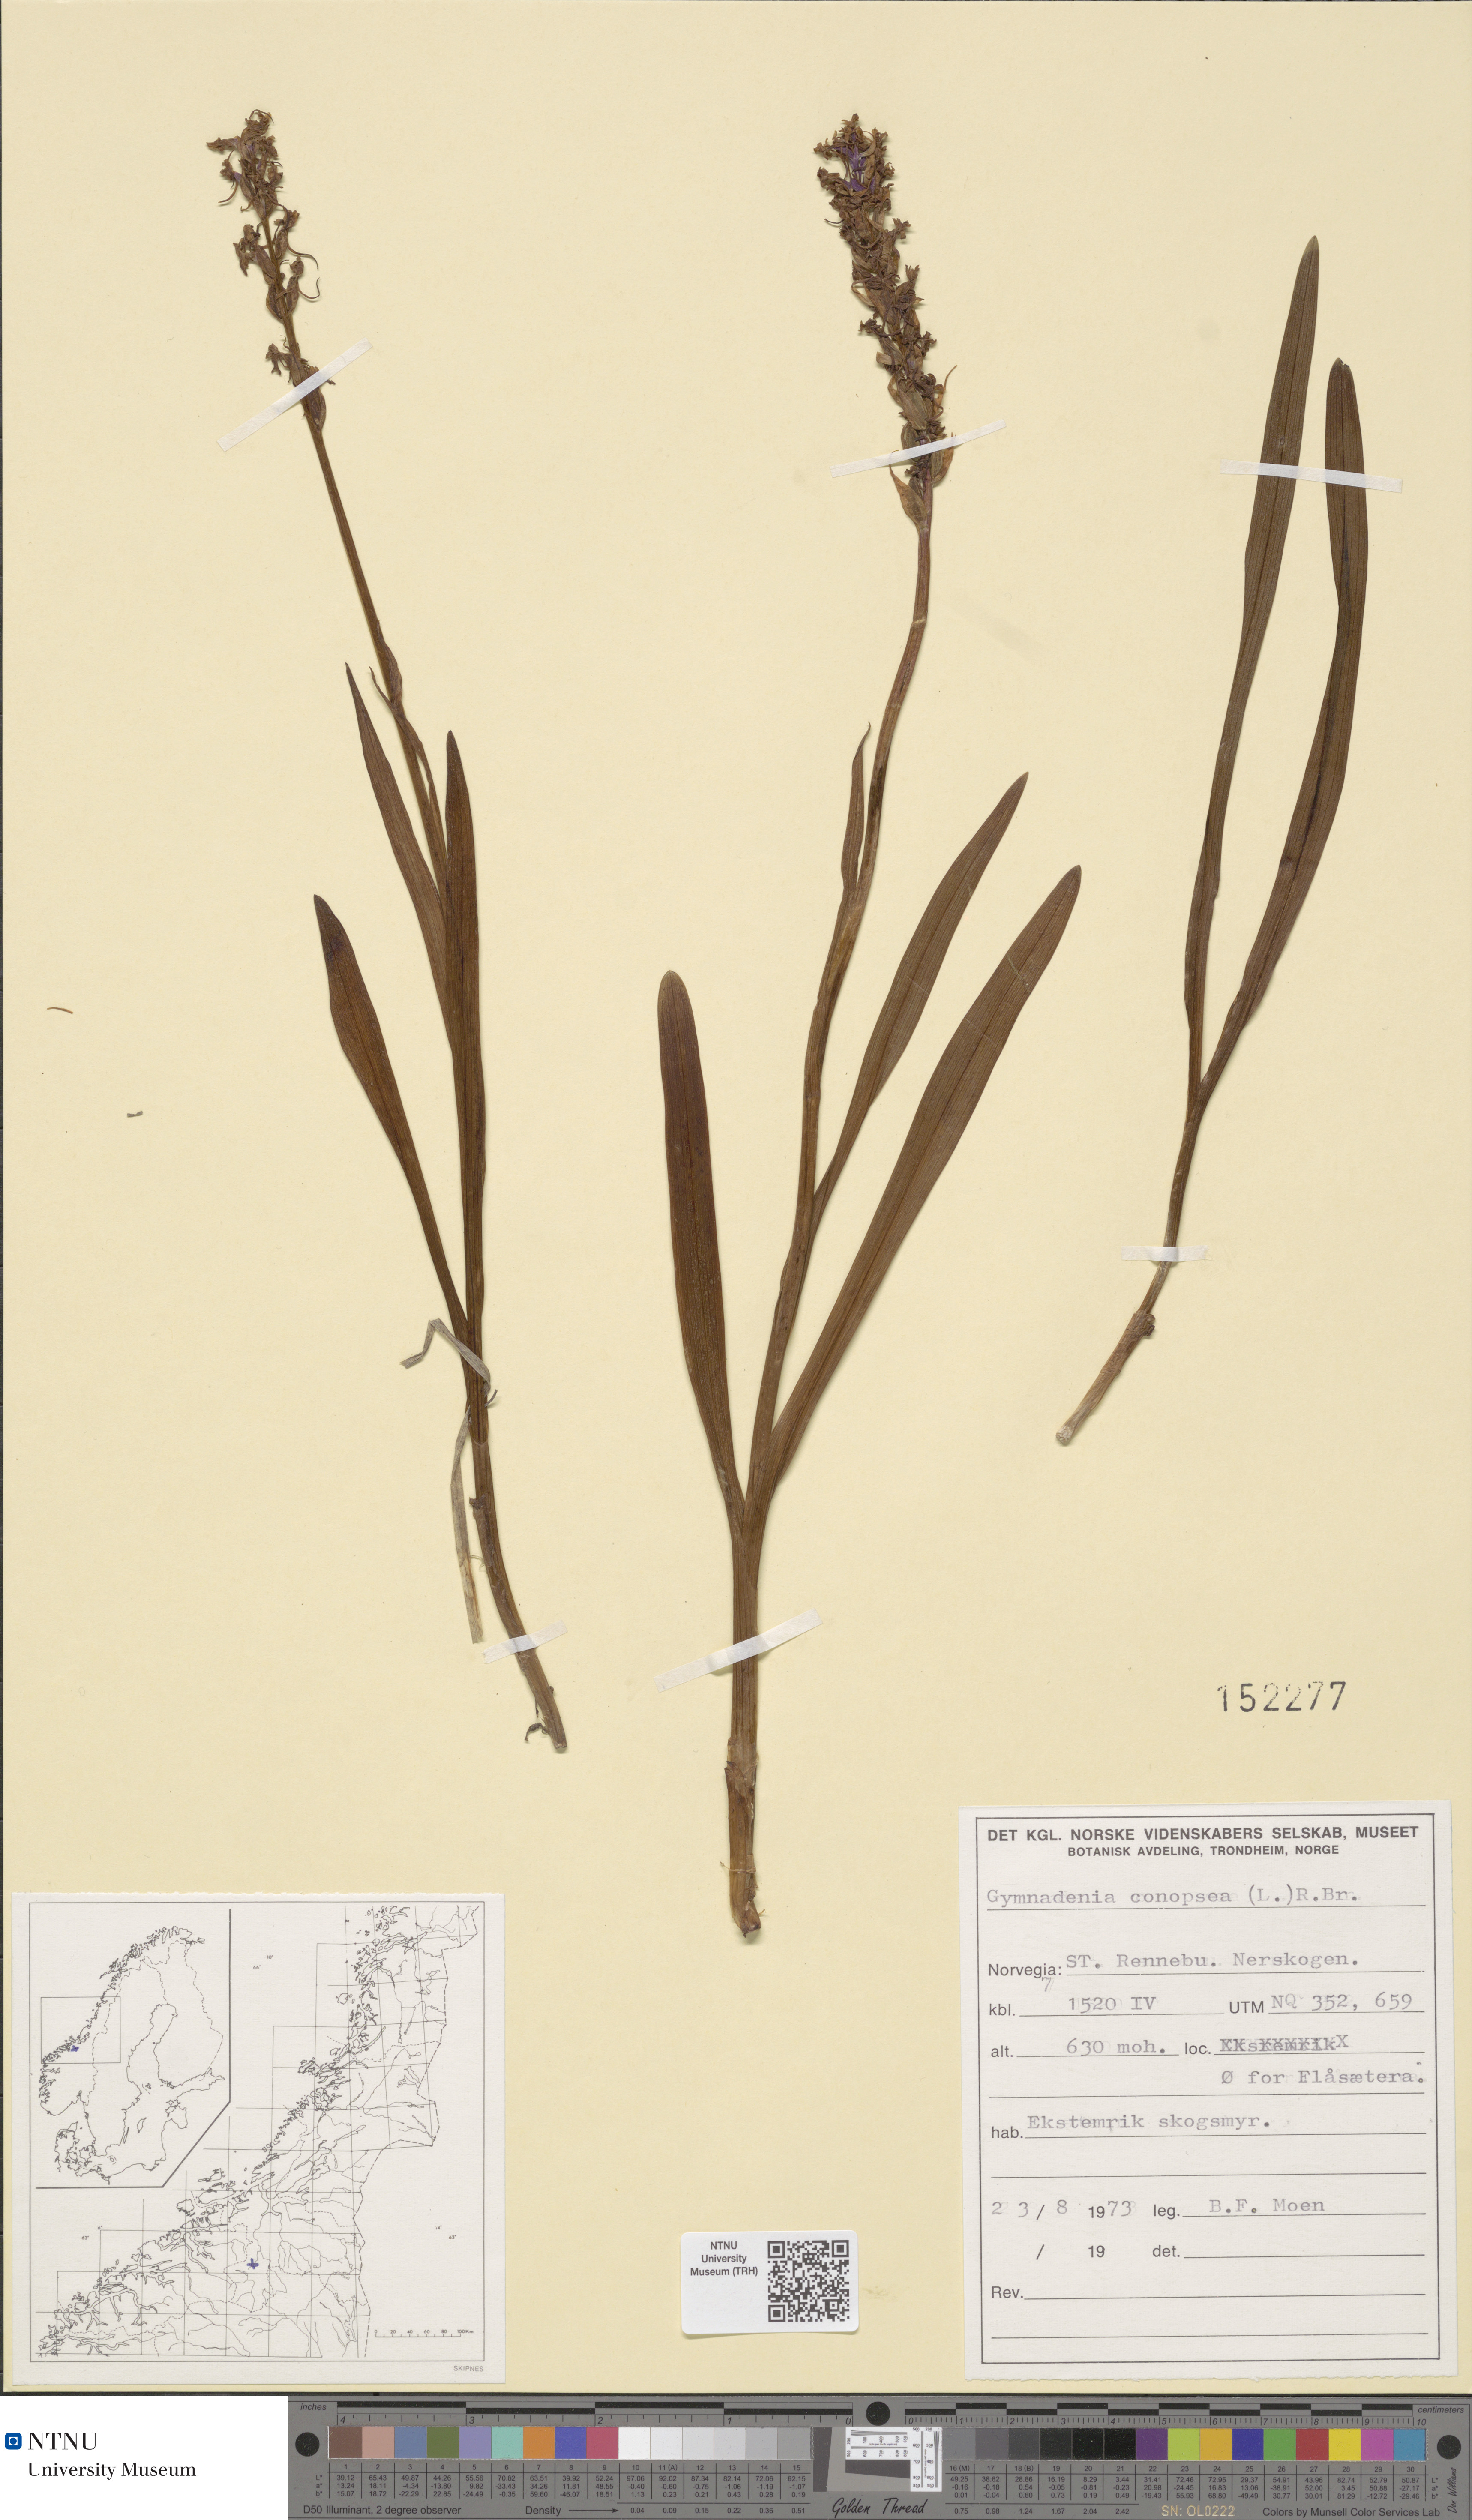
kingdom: Plantae
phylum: Tracheophyta
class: Liliopsida
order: Asparagales
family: Orchidaceae
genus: Gymnadenia
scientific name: Gymnadenia conopsea
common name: Fragrant orchid
